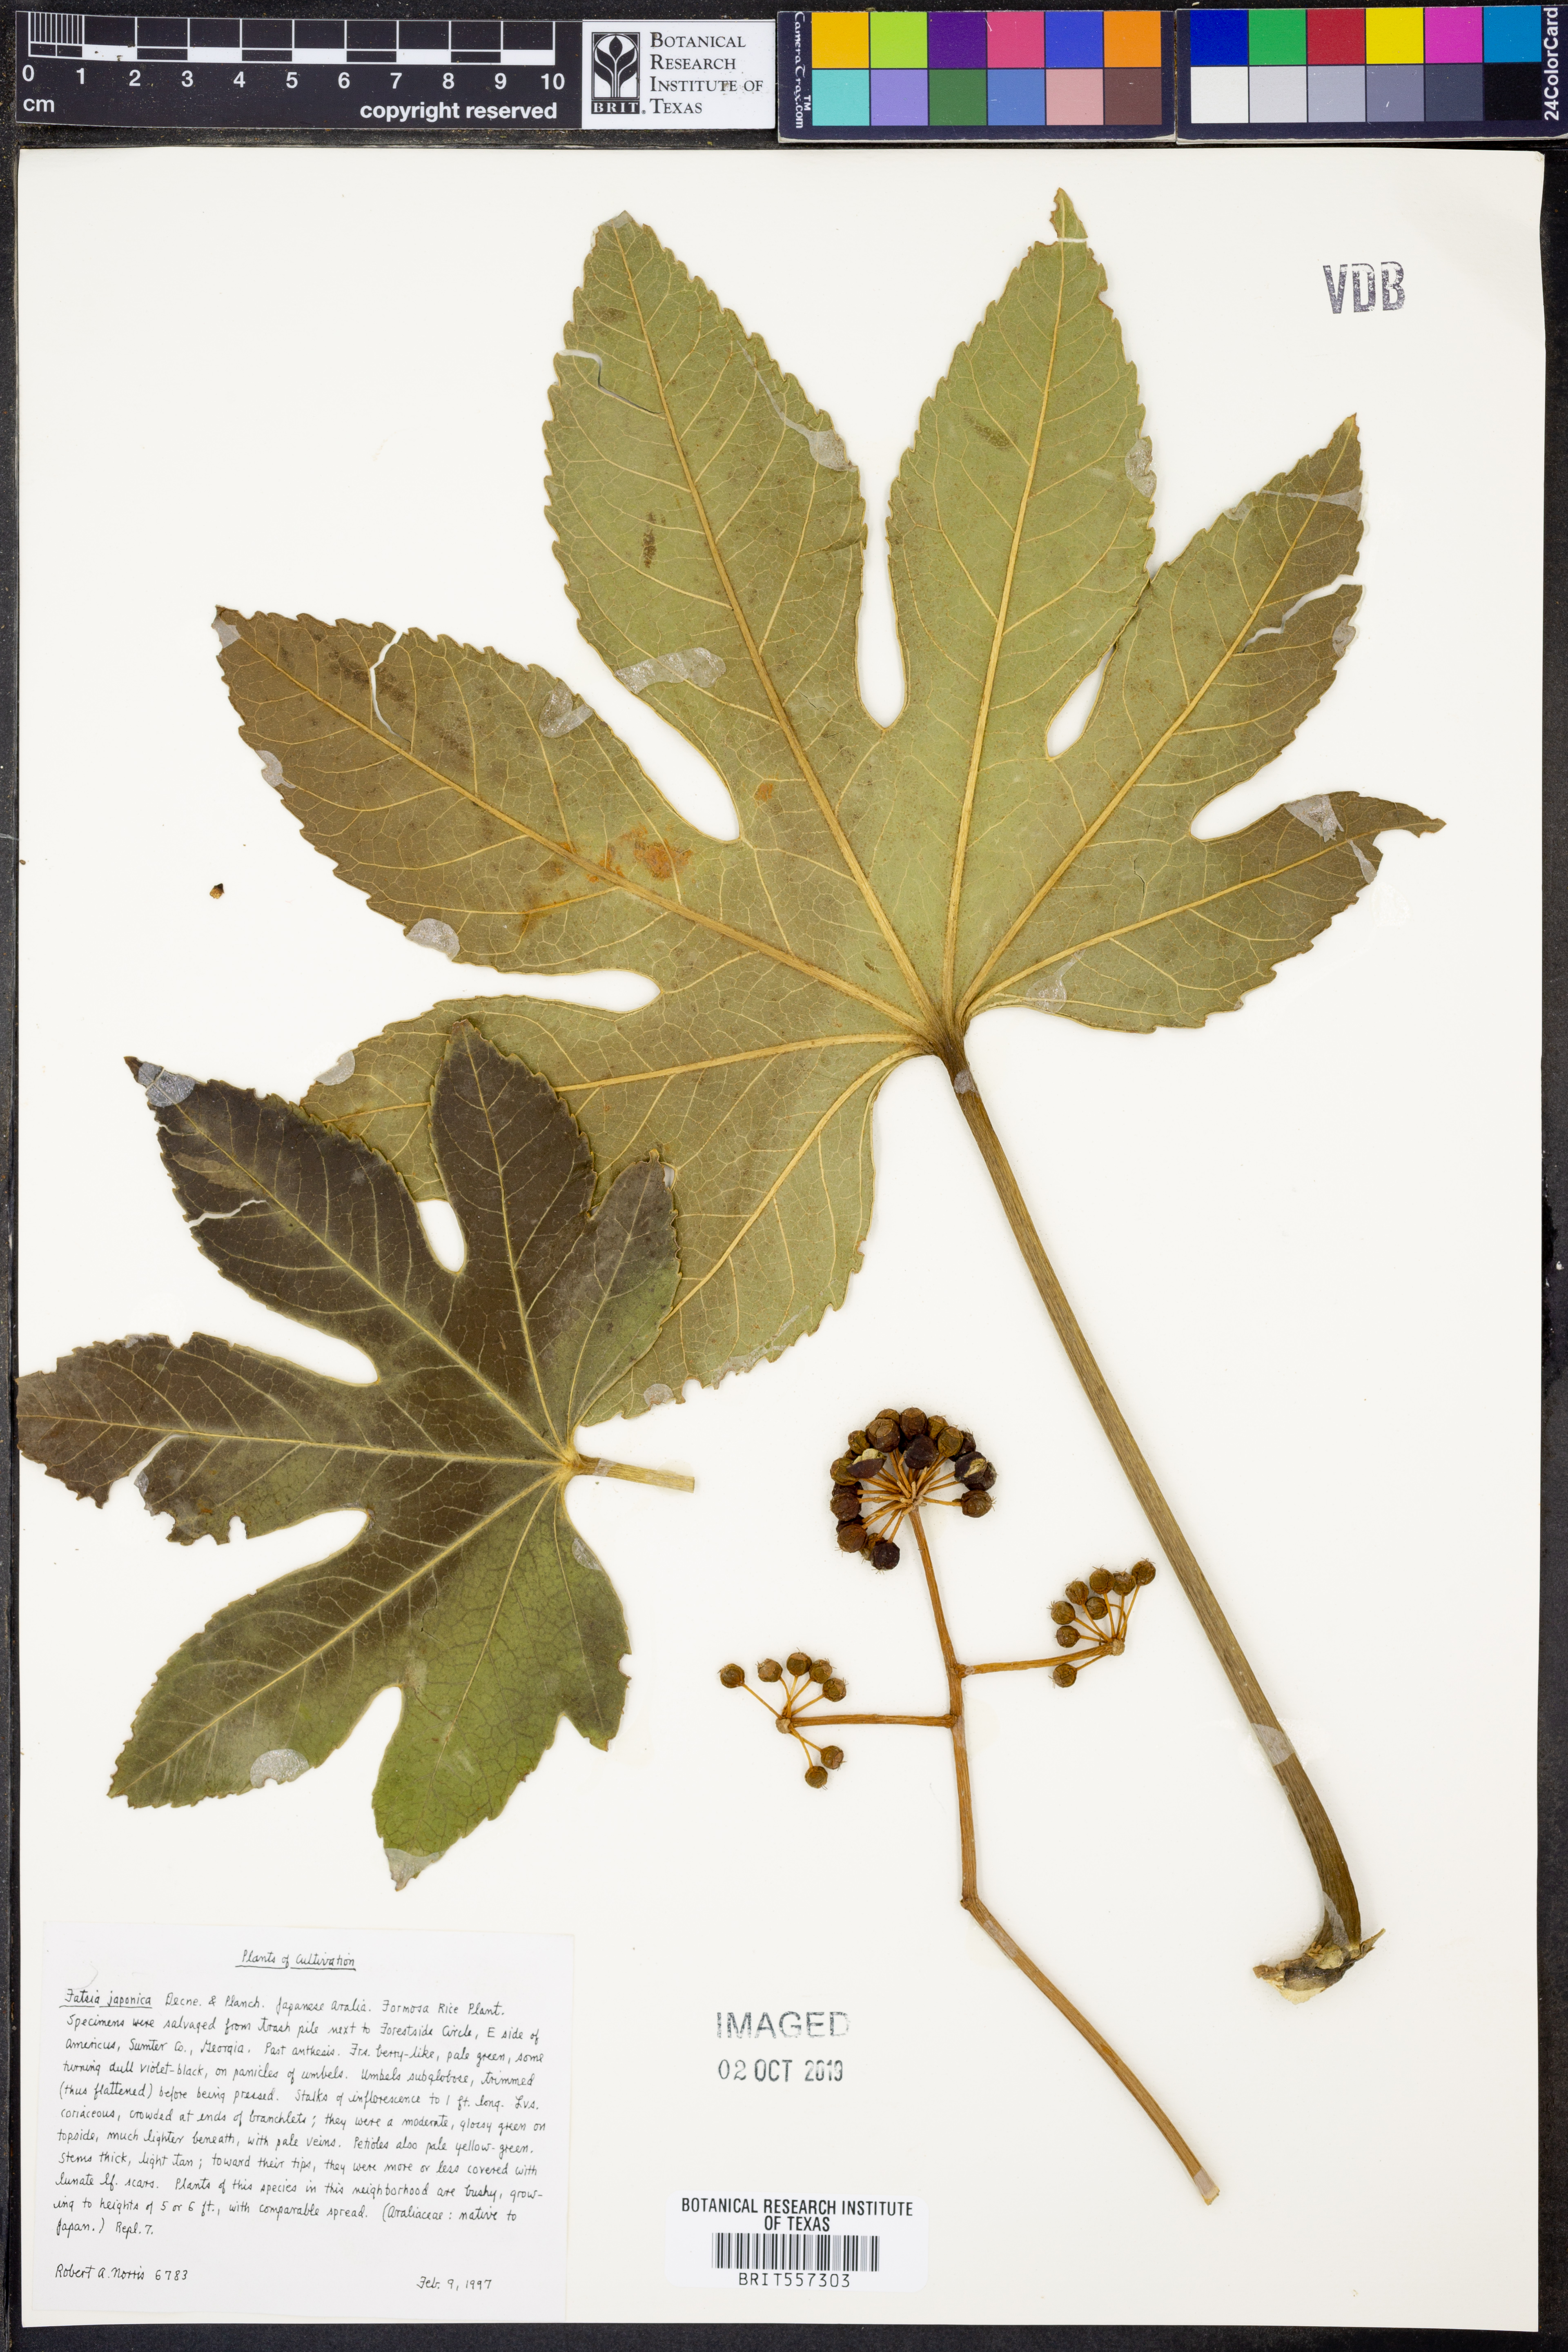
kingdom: Plantae
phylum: Tracheophyta
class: Magnoliopsida
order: Apiales
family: Araliaceae
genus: Fatsia
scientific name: Fatsia japonica
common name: Fatsia
